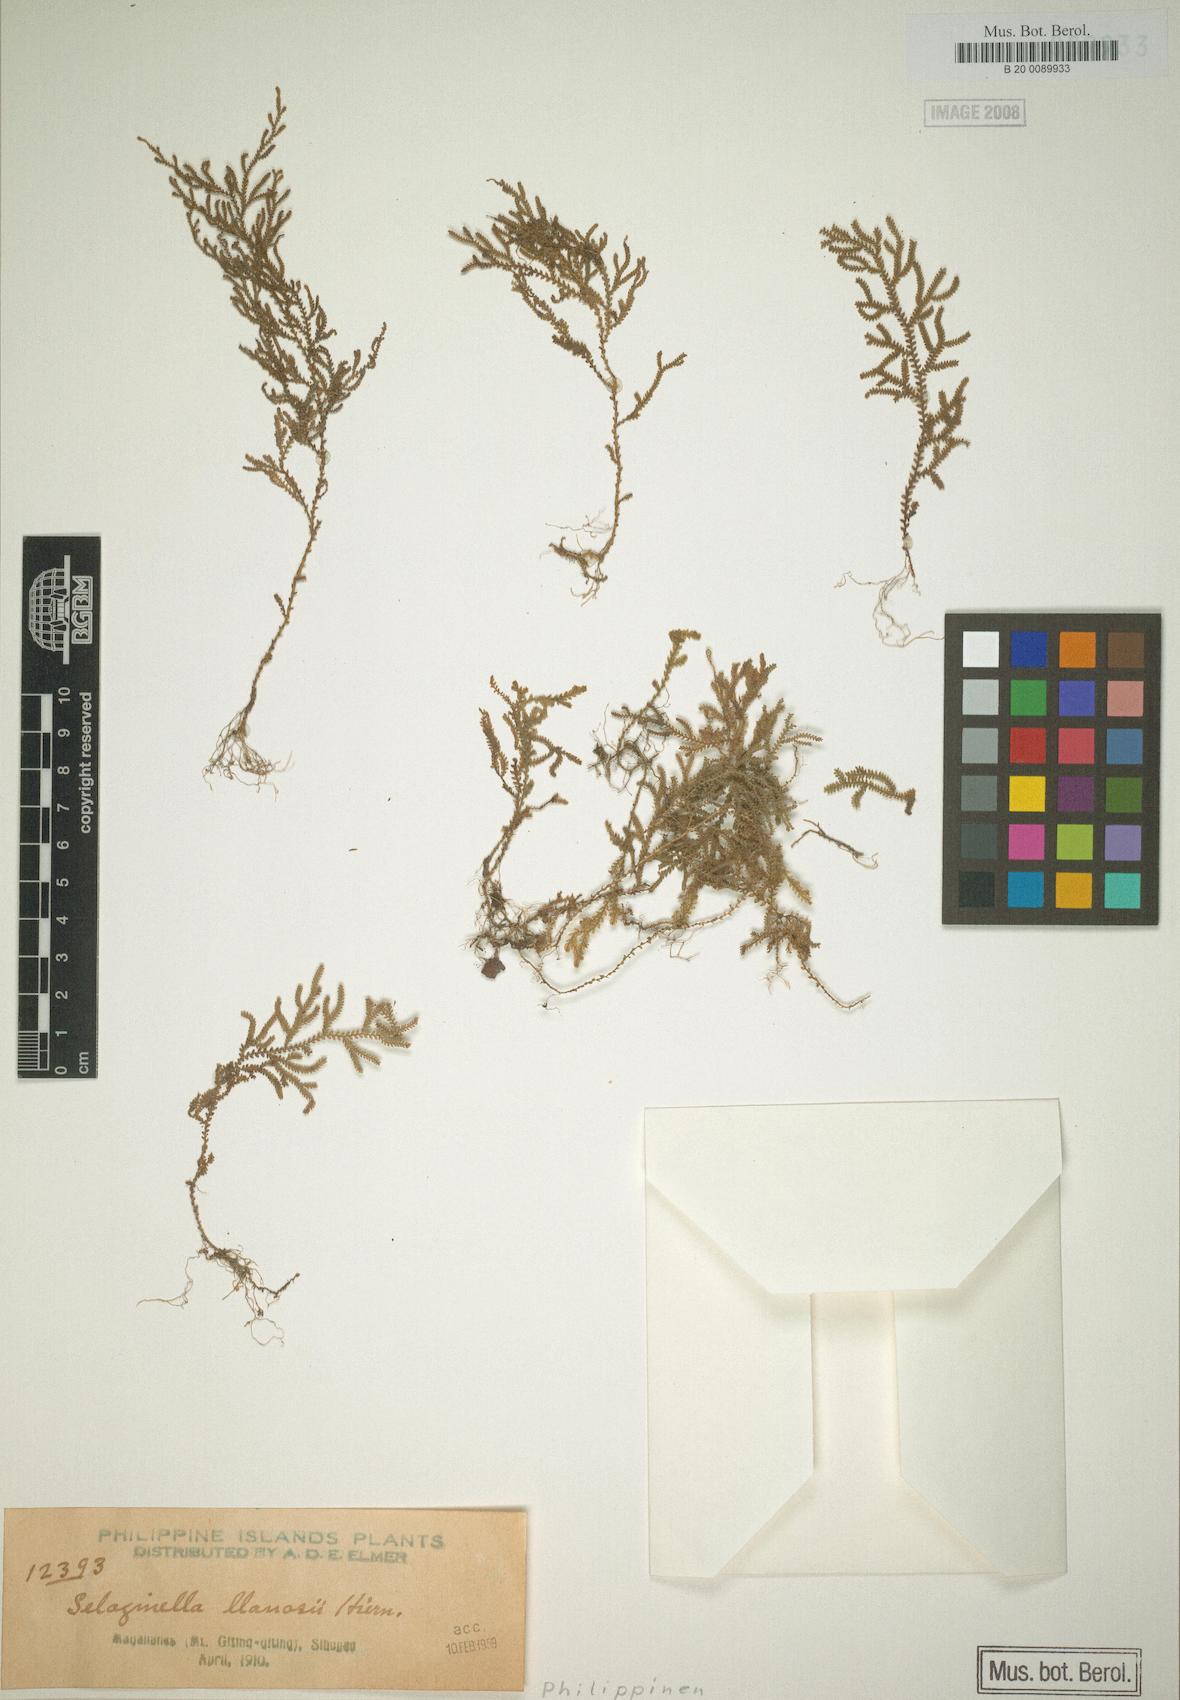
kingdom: Plantae
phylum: Tracheophyta
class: Lycopodiopsida
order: Selaginellales
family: Selaginellaceae
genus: Selaginella
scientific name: Selaginella llanosii
